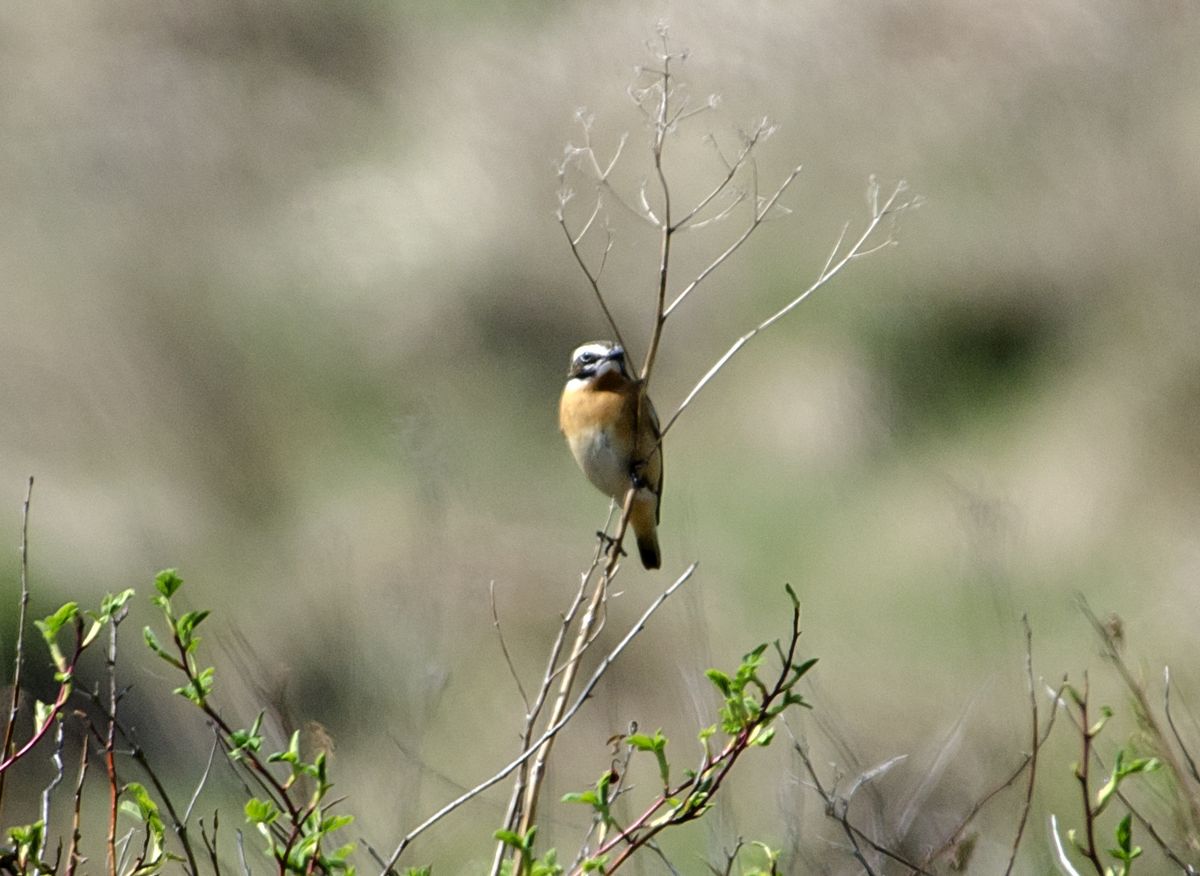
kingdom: Animalia
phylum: Chordata
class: Aves
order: Passeriformes
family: Muscicapidae
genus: Saxicola
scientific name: Saxicola rubetra
